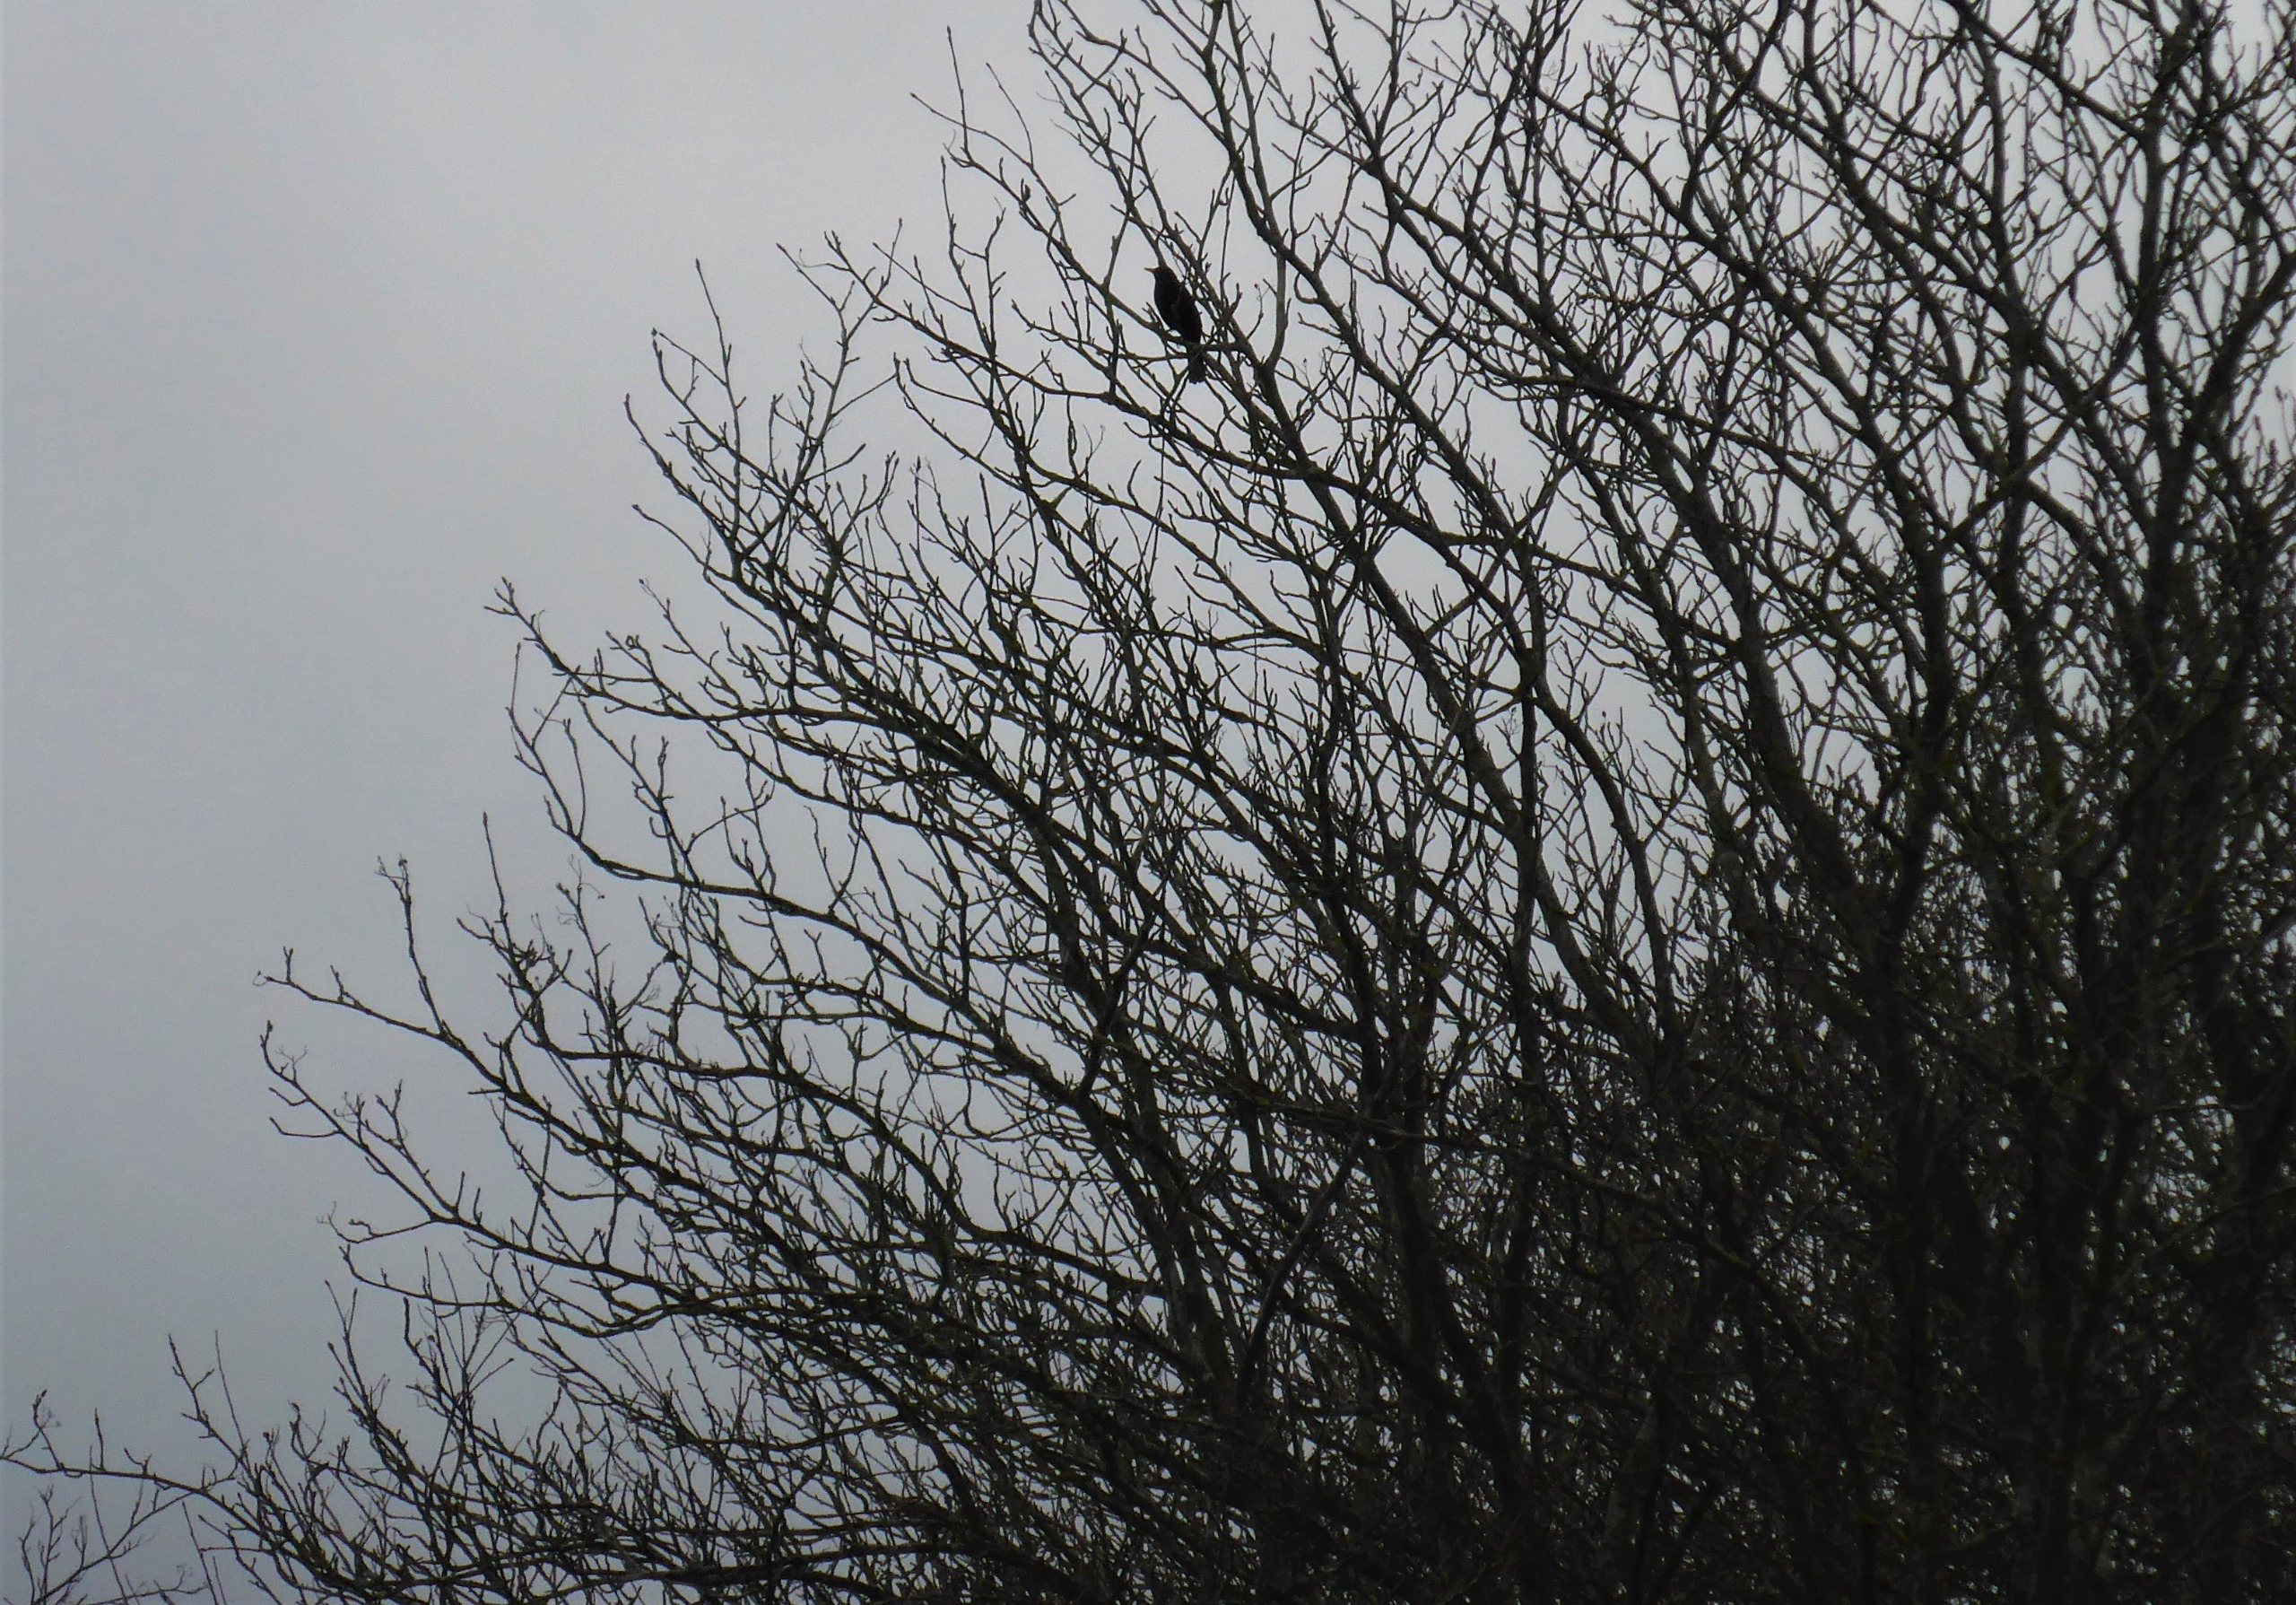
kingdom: Animalia
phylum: Chordata
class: Aves
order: Passeriformes
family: Turdidae
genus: Turdus
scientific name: Turdus merula
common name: Solsort
